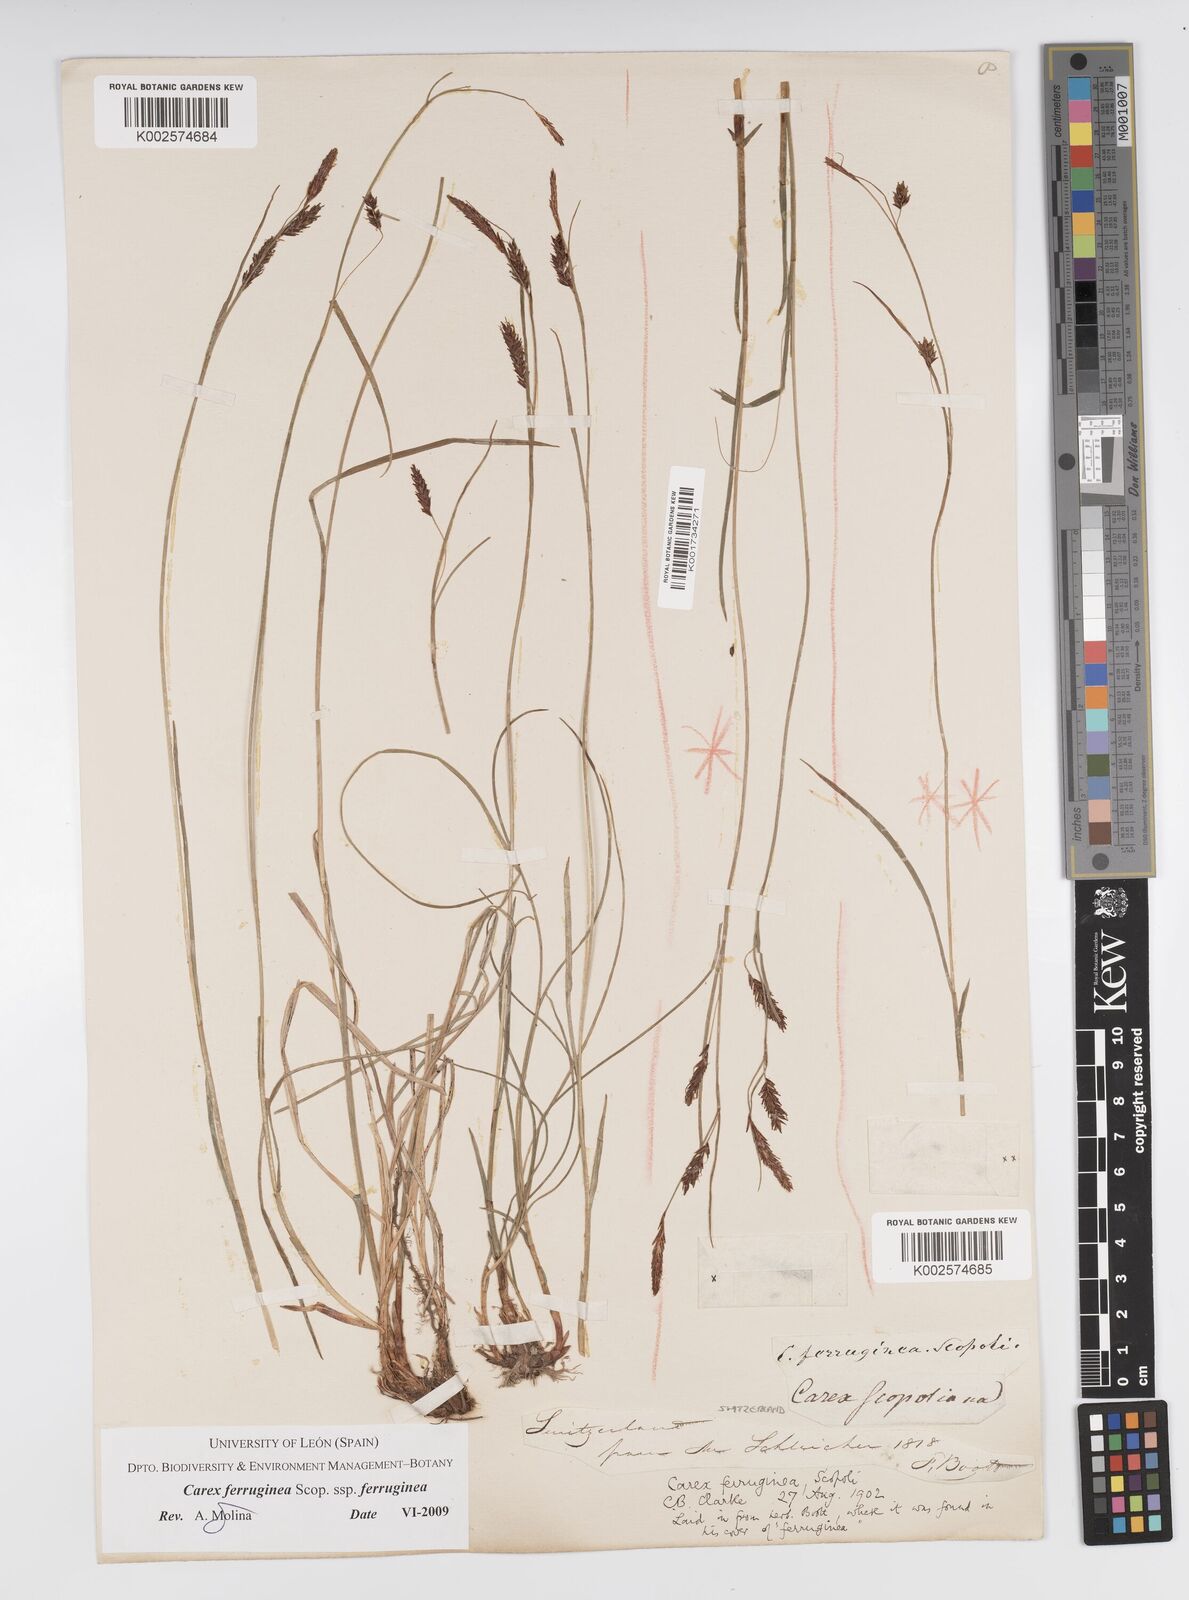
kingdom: Plantae
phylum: Tracheophyta
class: Liliopsida
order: Poales
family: Cyperaceae
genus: Carex
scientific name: Carex ferruginea
